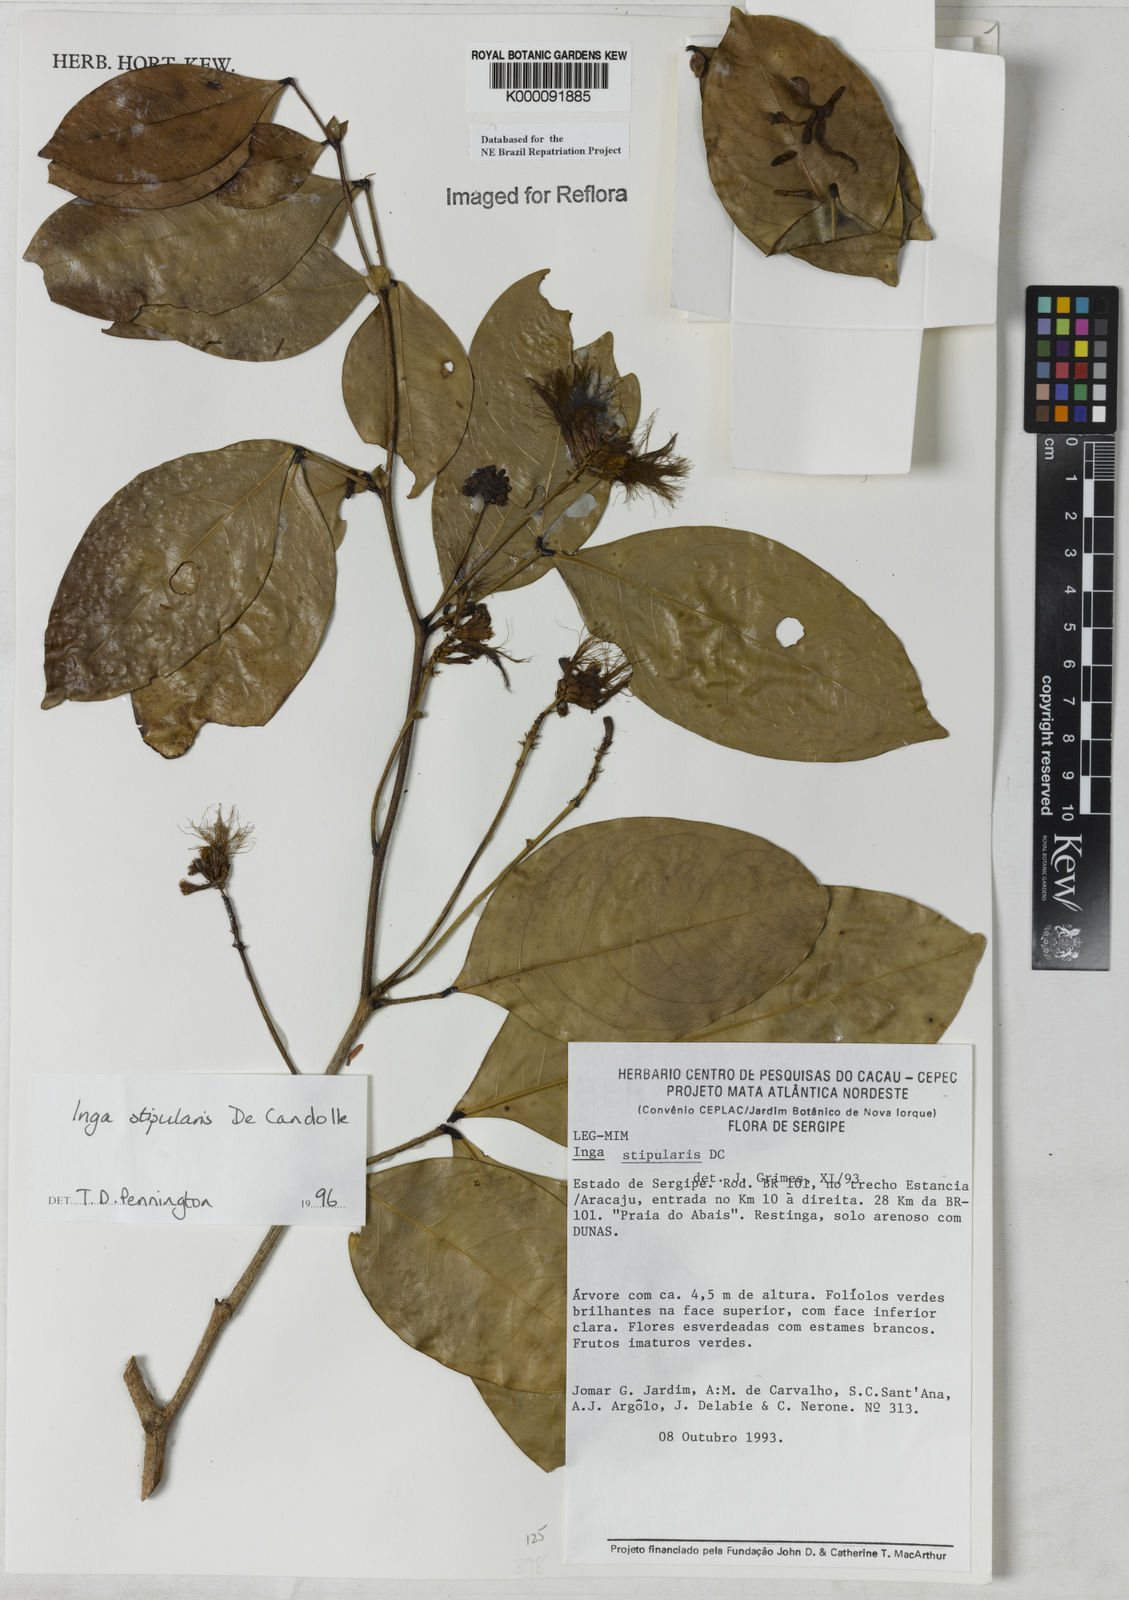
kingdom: Plantae
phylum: Tracheophyta
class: Magnoliopsida
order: Fabales
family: Fabaceae
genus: Inga
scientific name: Inga stipularis
